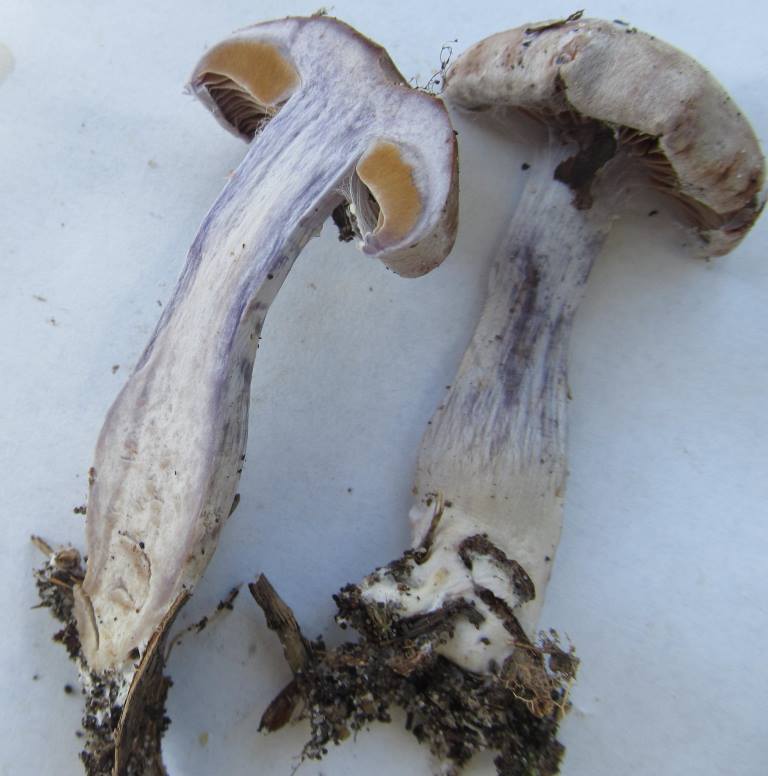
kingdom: Fungi
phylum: Basidiomycota
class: Agaricomycetes
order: Agaricales
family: Cortinariaceae
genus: Cortinarius
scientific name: Cortinarius albocyaneus
